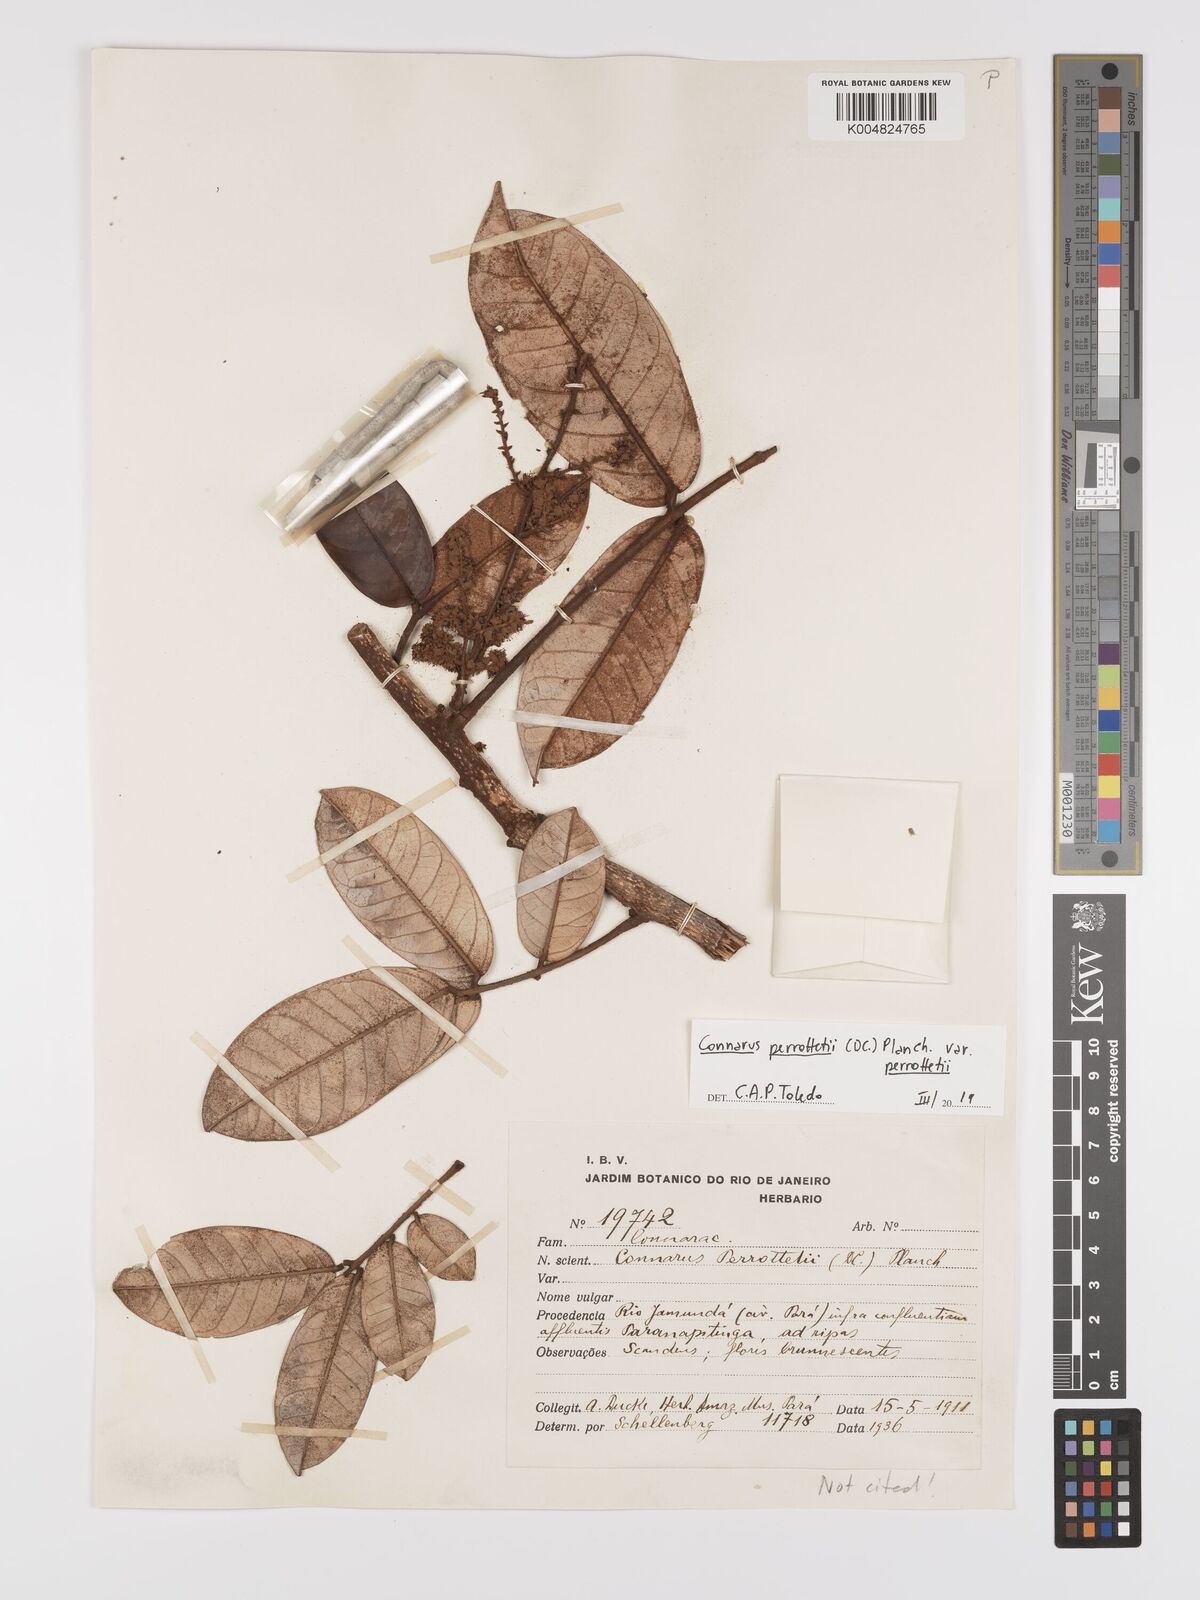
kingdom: Plantae
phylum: Tracheophyta
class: Magnoliopsida
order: Oxalidales
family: Connaraceae
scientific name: Connaraceae
